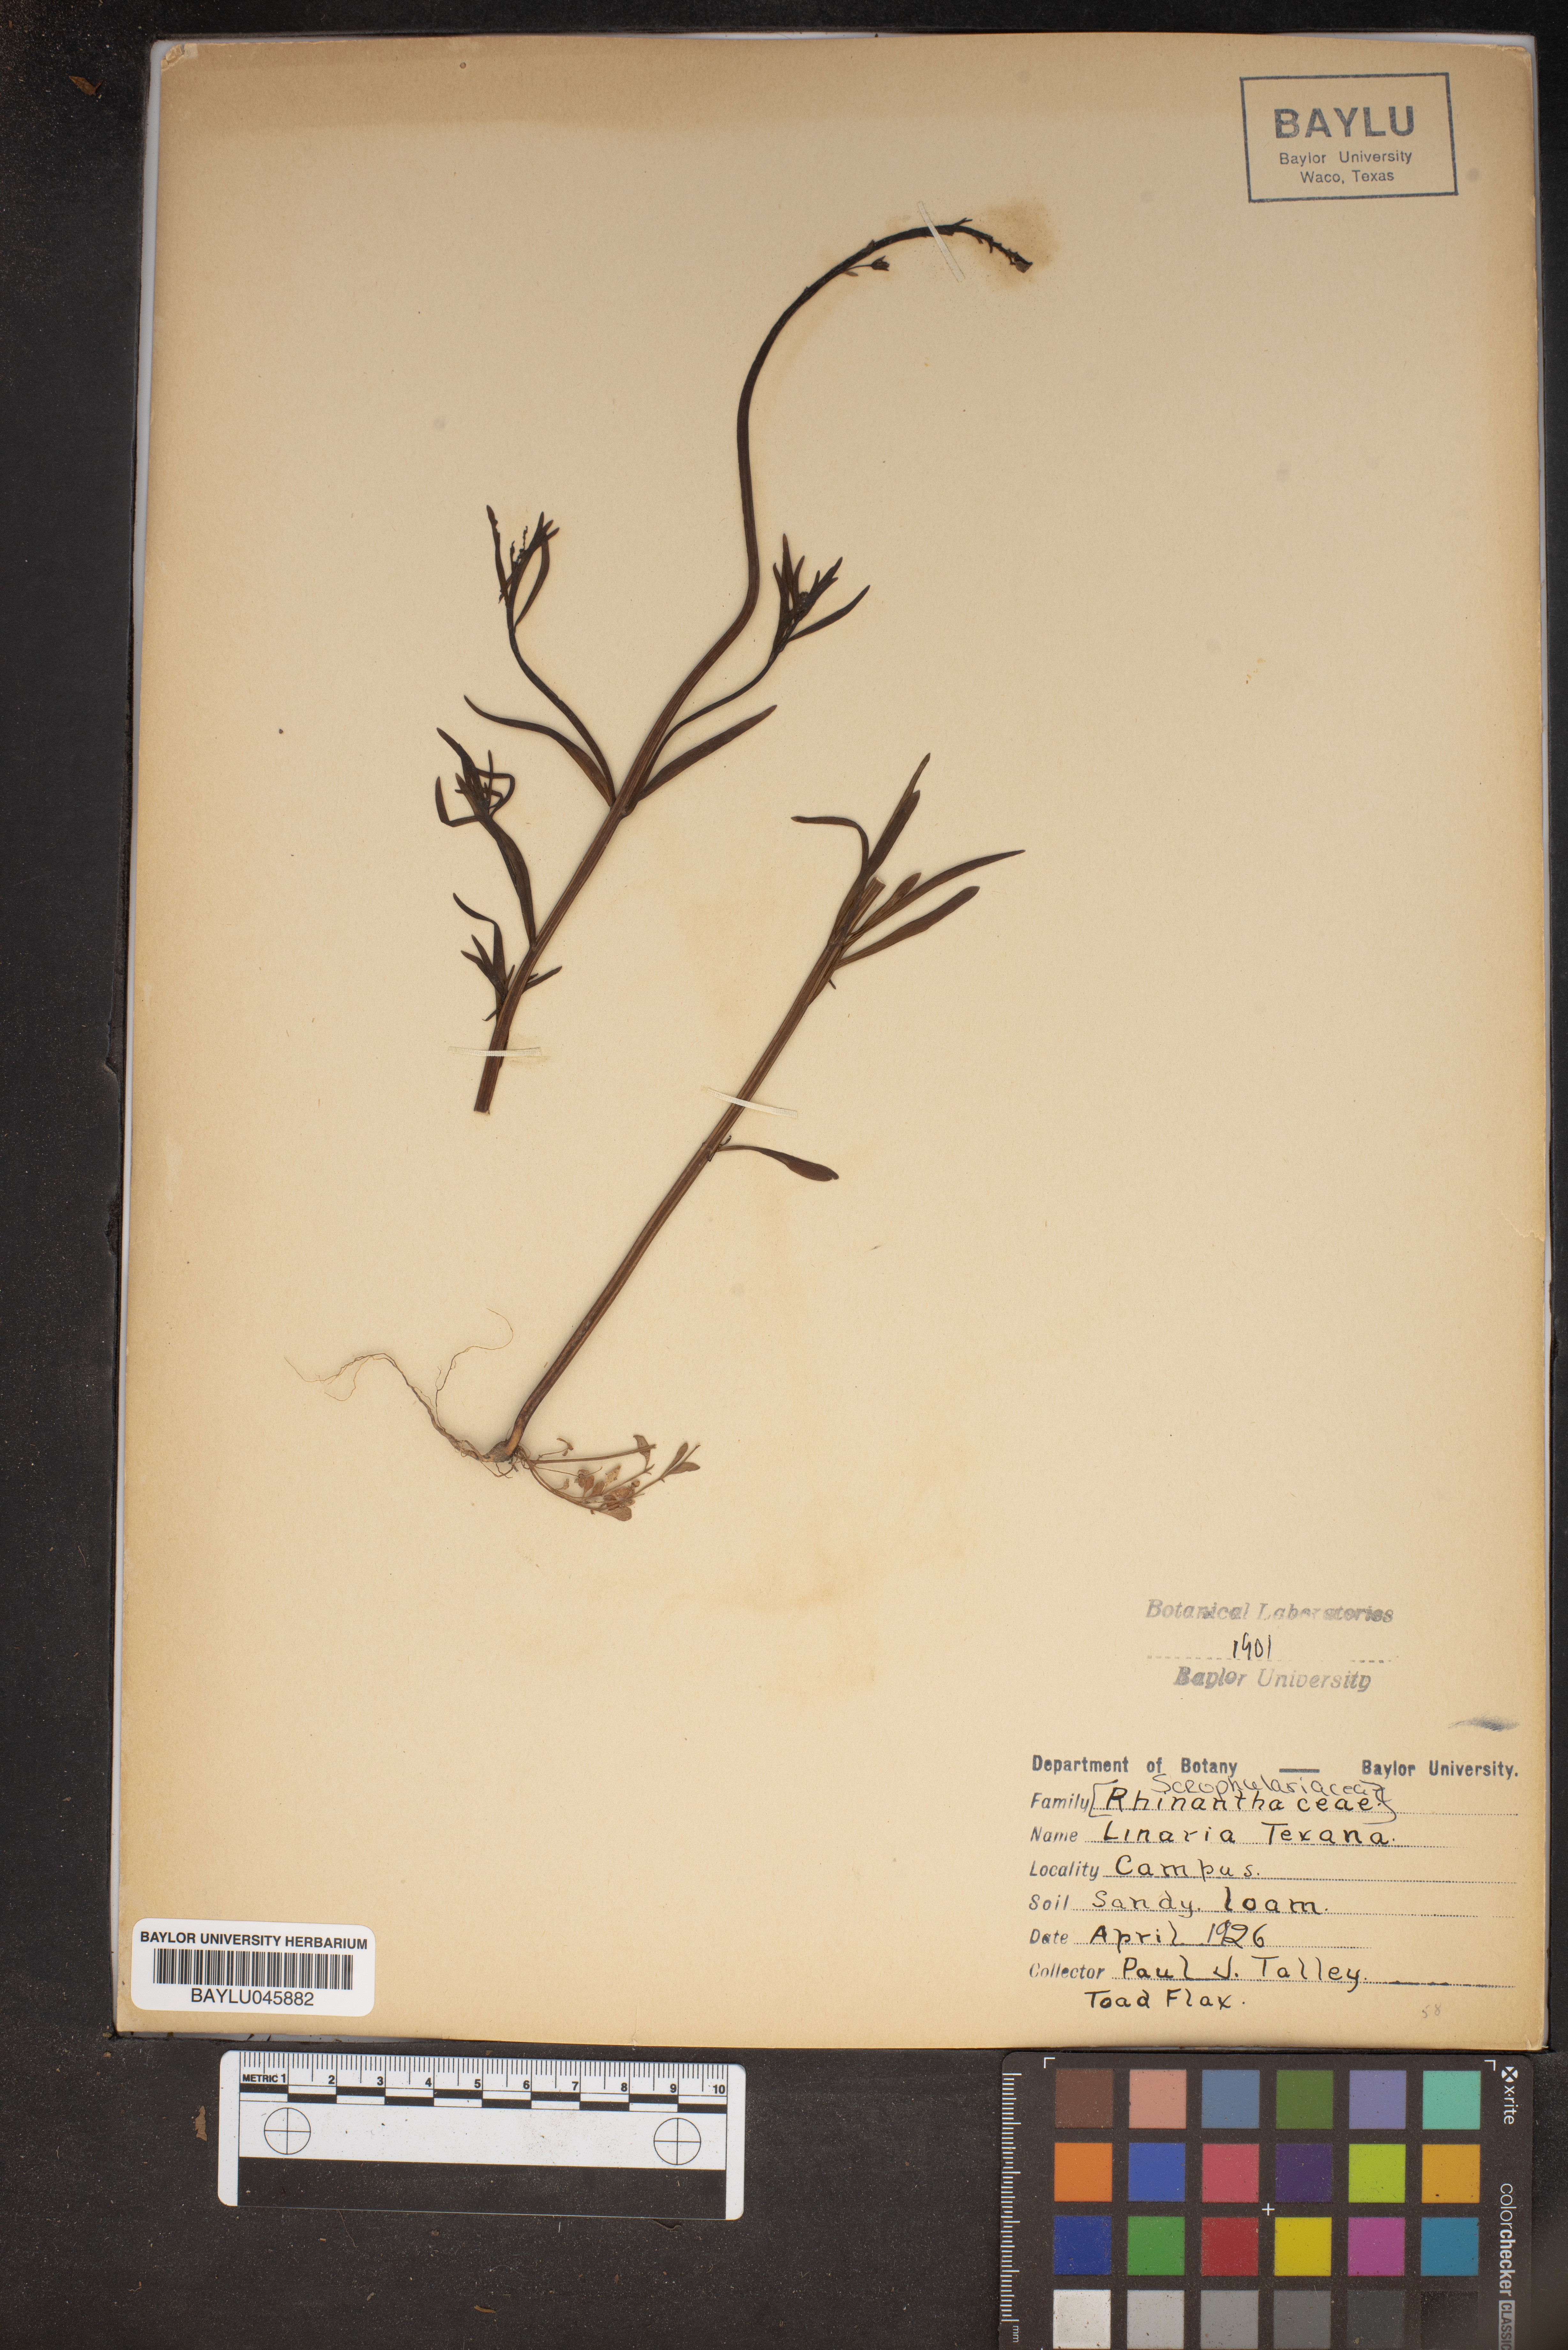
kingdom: Plantae
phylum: Tracheophyta
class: Magnoliopsida
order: Lamiales
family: Plantaginaceae
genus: Nuttallanthus
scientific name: Nuttallanthus texanus
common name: Texas toadflax
